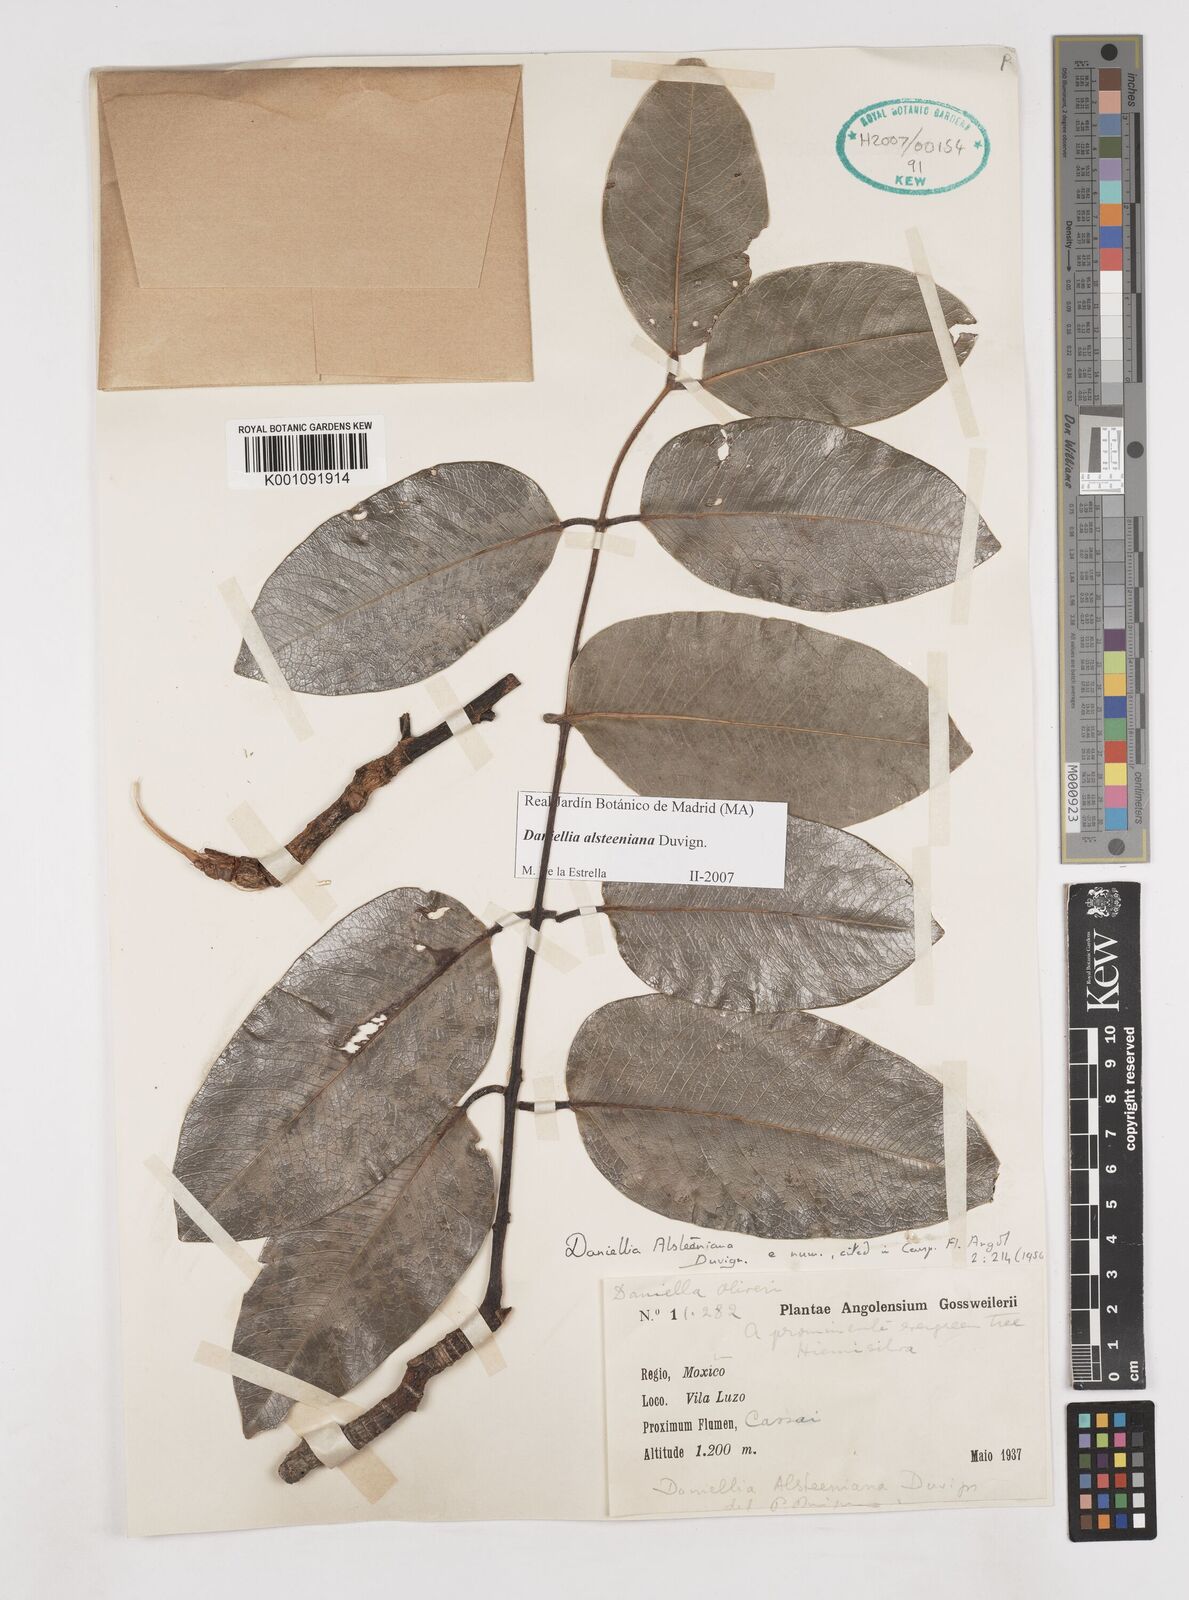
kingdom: Plantae
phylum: Tracheophyta
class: Magnoliopsida
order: Fabales
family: Fabaceae
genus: Daniellia
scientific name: Daniellia alsteeniana
